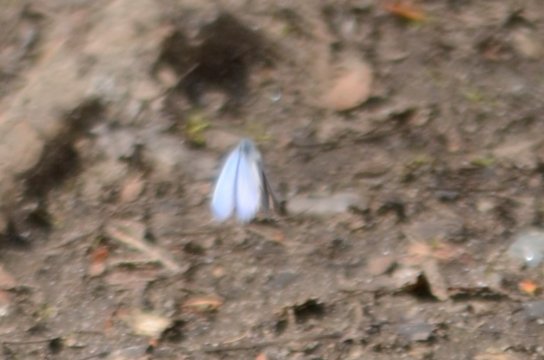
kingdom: Animalia
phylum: Arthropoda
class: Insecta
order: Lepidoptera
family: Lycaenidae
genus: Celastrina
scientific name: Celastrina
